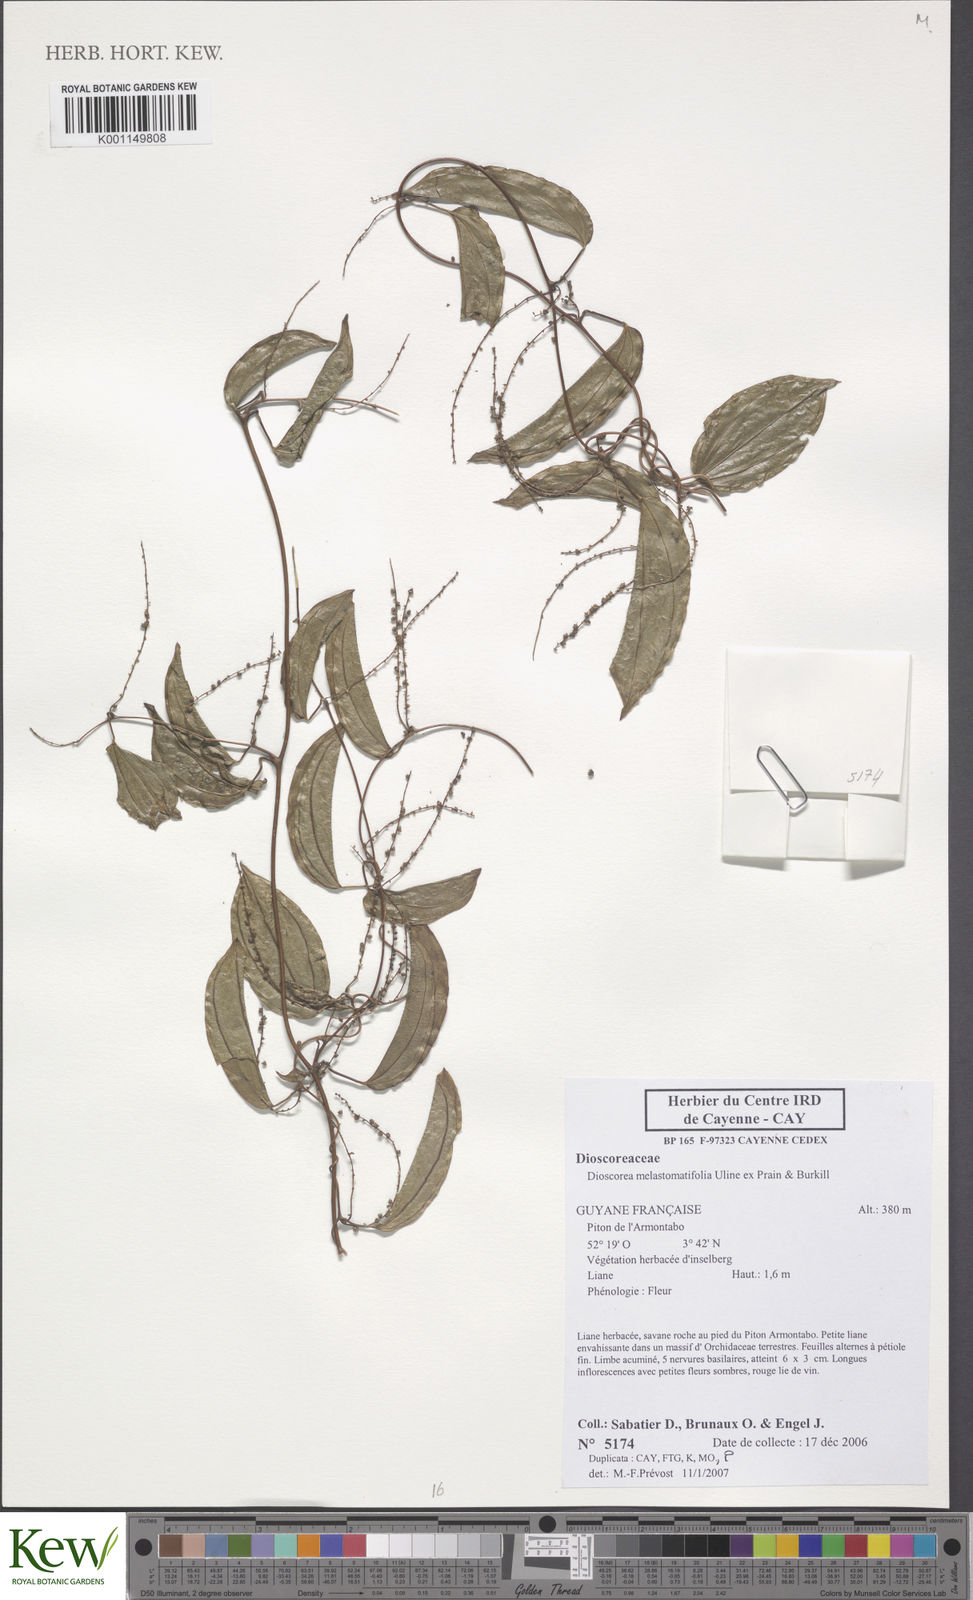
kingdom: Plantae
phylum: Tracheophyta
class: Liliopsida
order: Dioscoreales
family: Dioscoreaceae
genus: Dioscorea
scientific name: Dioscorea
